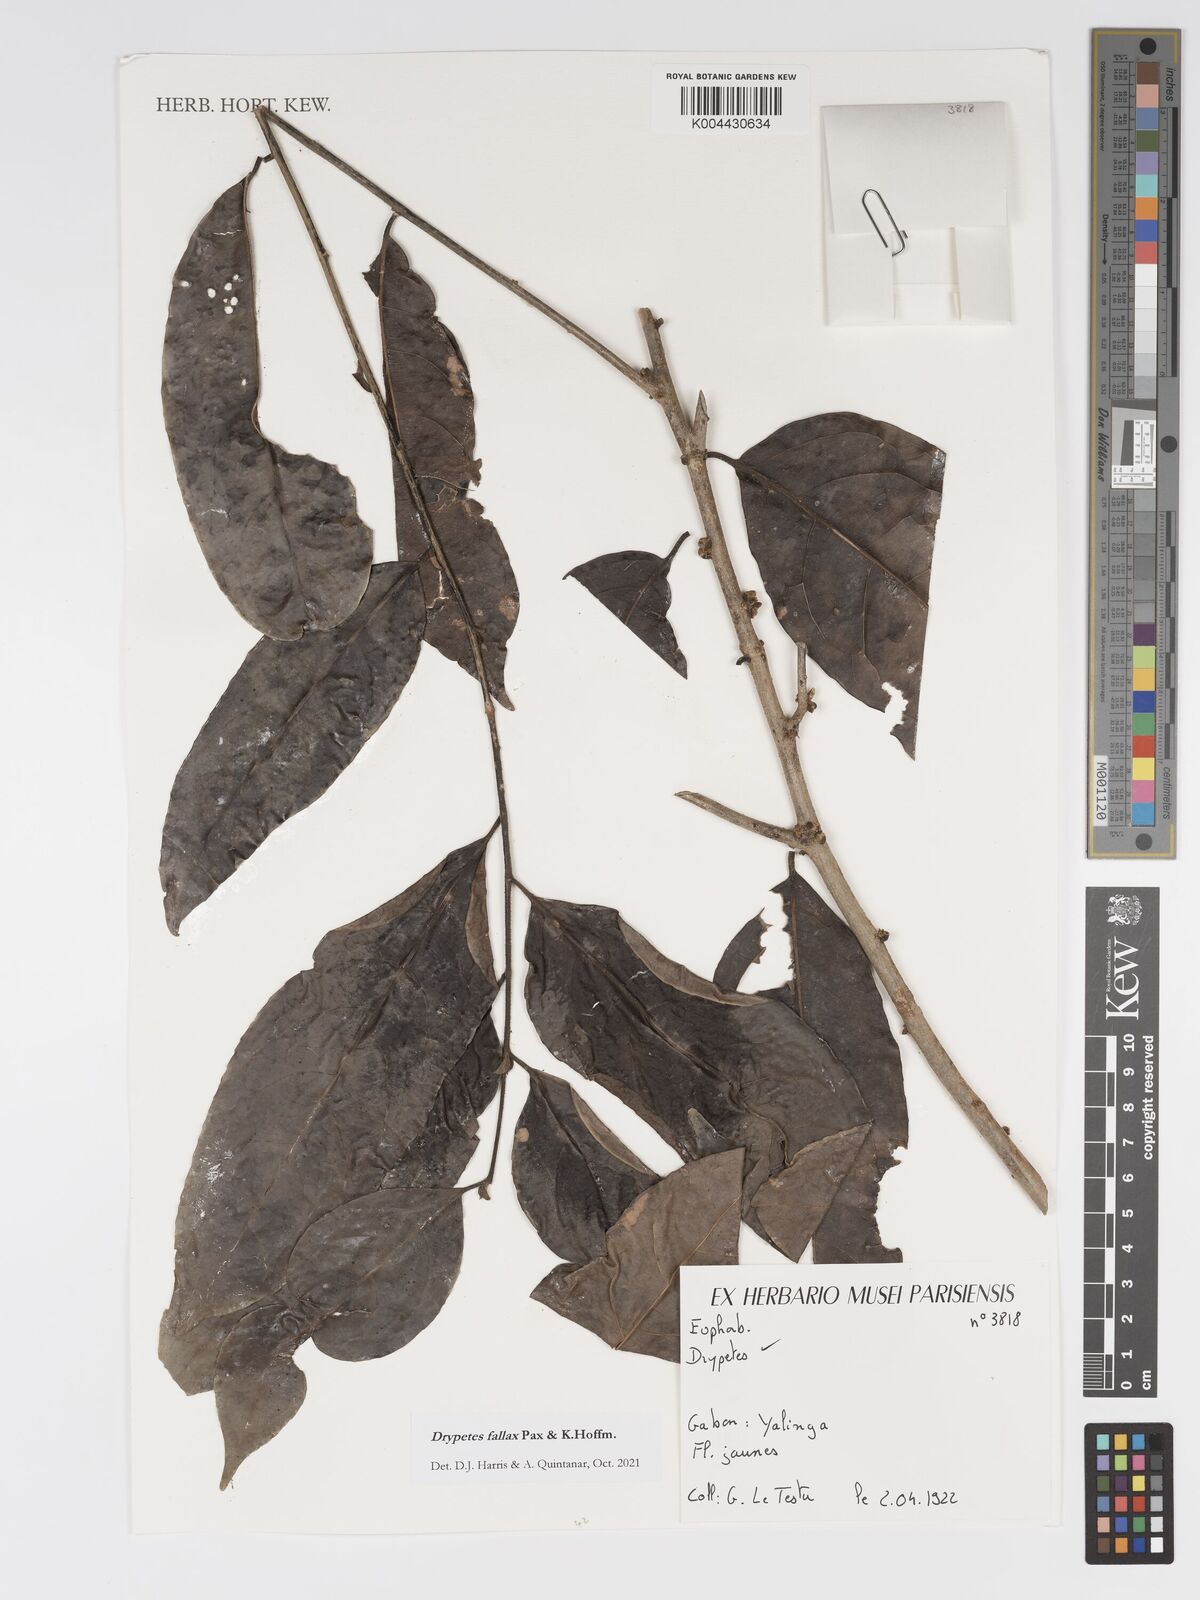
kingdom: Plantae
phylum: Tracheophyta
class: Magnoliopsida
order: Malpighiales
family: Putranjivaceae
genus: Drypetes
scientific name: Drypetes fallax
